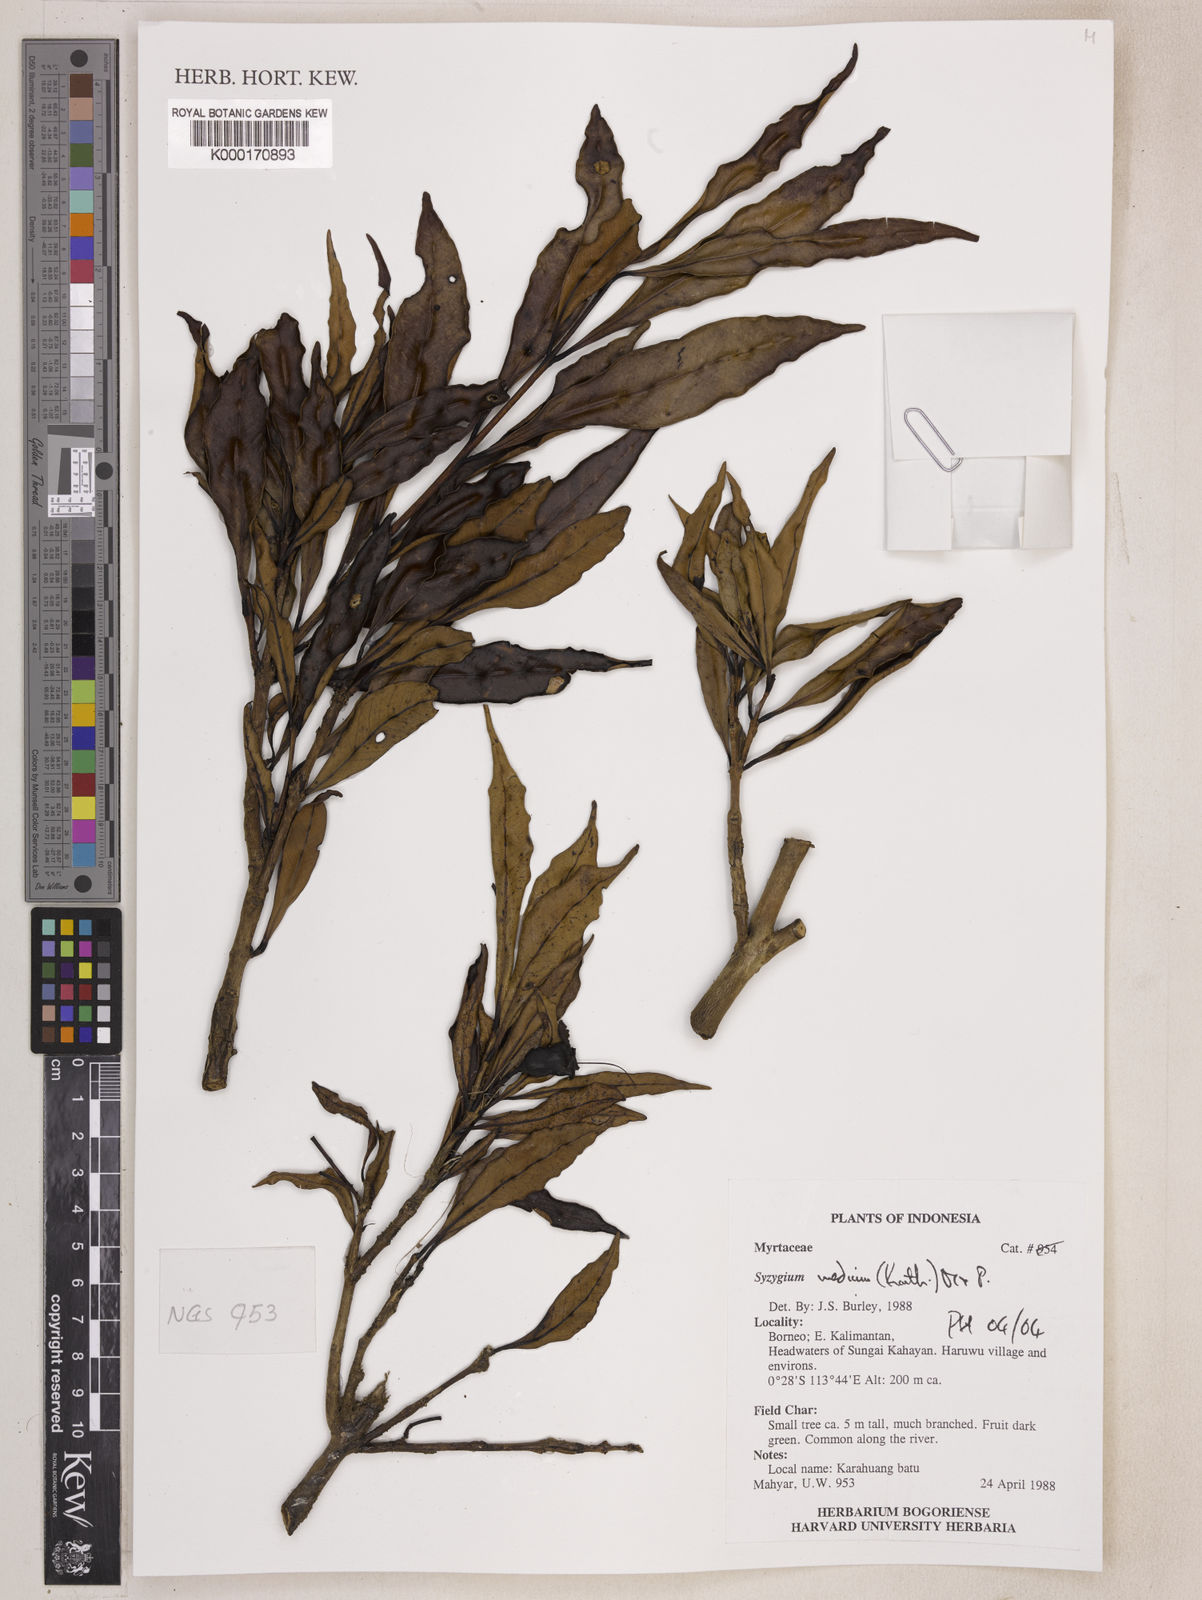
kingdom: Plantae
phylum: Tracheophyta
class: Magnoliopsida
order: Myrtales
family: Myrtaceae
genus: Syzygium
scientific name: Syzygium medium
